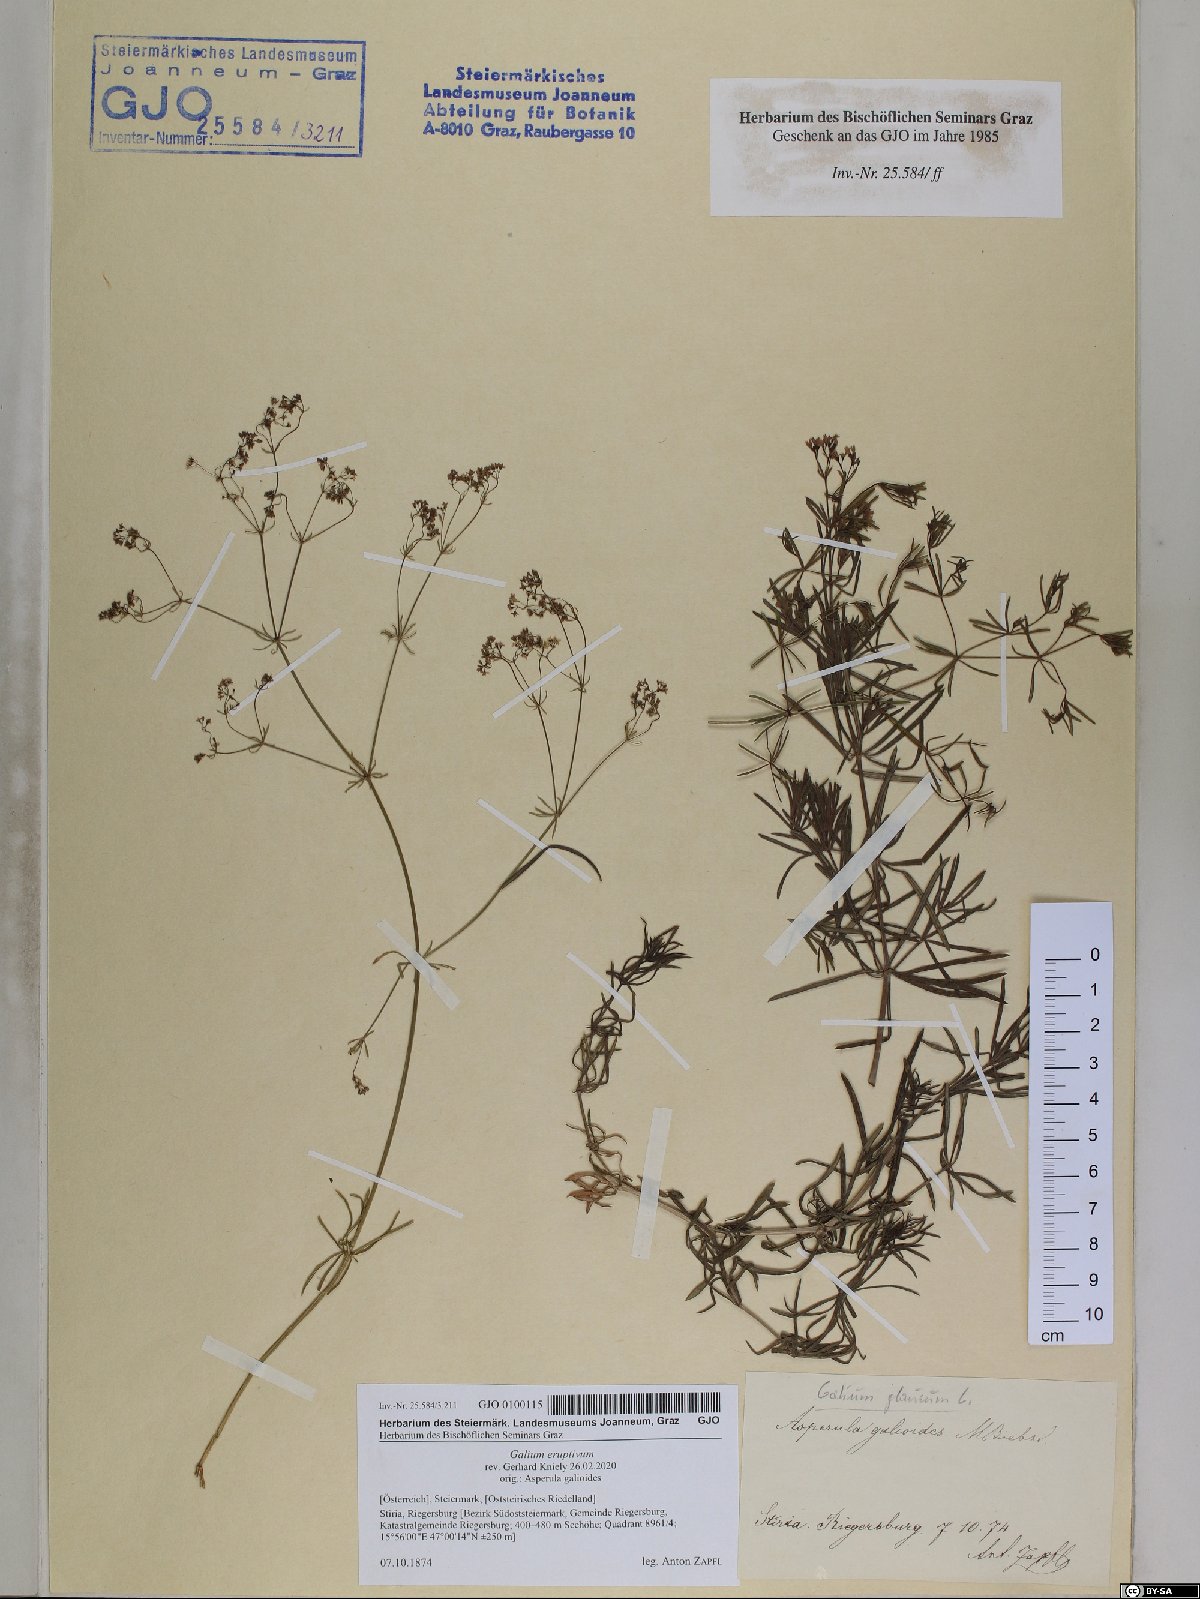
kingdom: Plantae
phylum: Tracheophyta
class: Magnoliopsida
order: Gentianales
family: Rubiaceae
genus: Galium
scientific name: Galium eruptivum
